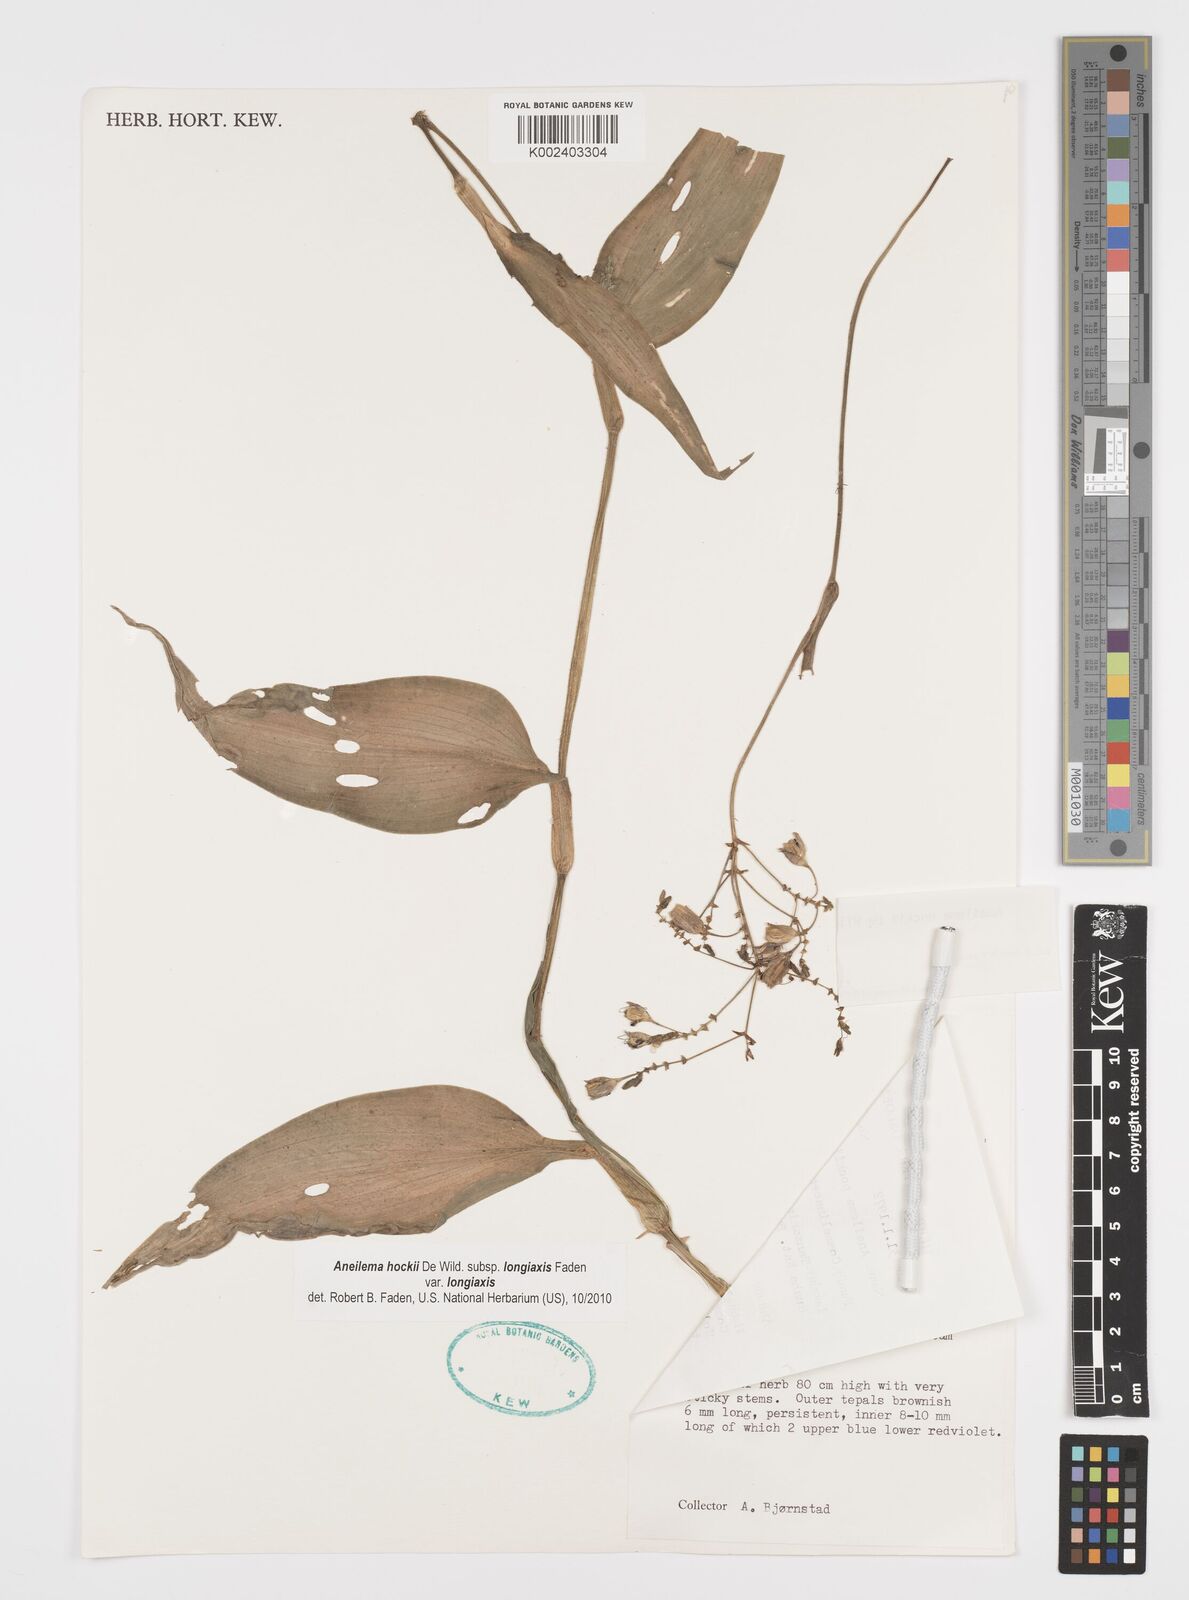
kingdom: Plantae
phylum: Tracheophyta
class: Liliopsida
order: Commelinales
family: Commelinaceae
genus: Aneilema
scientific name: Aneilema hockii
